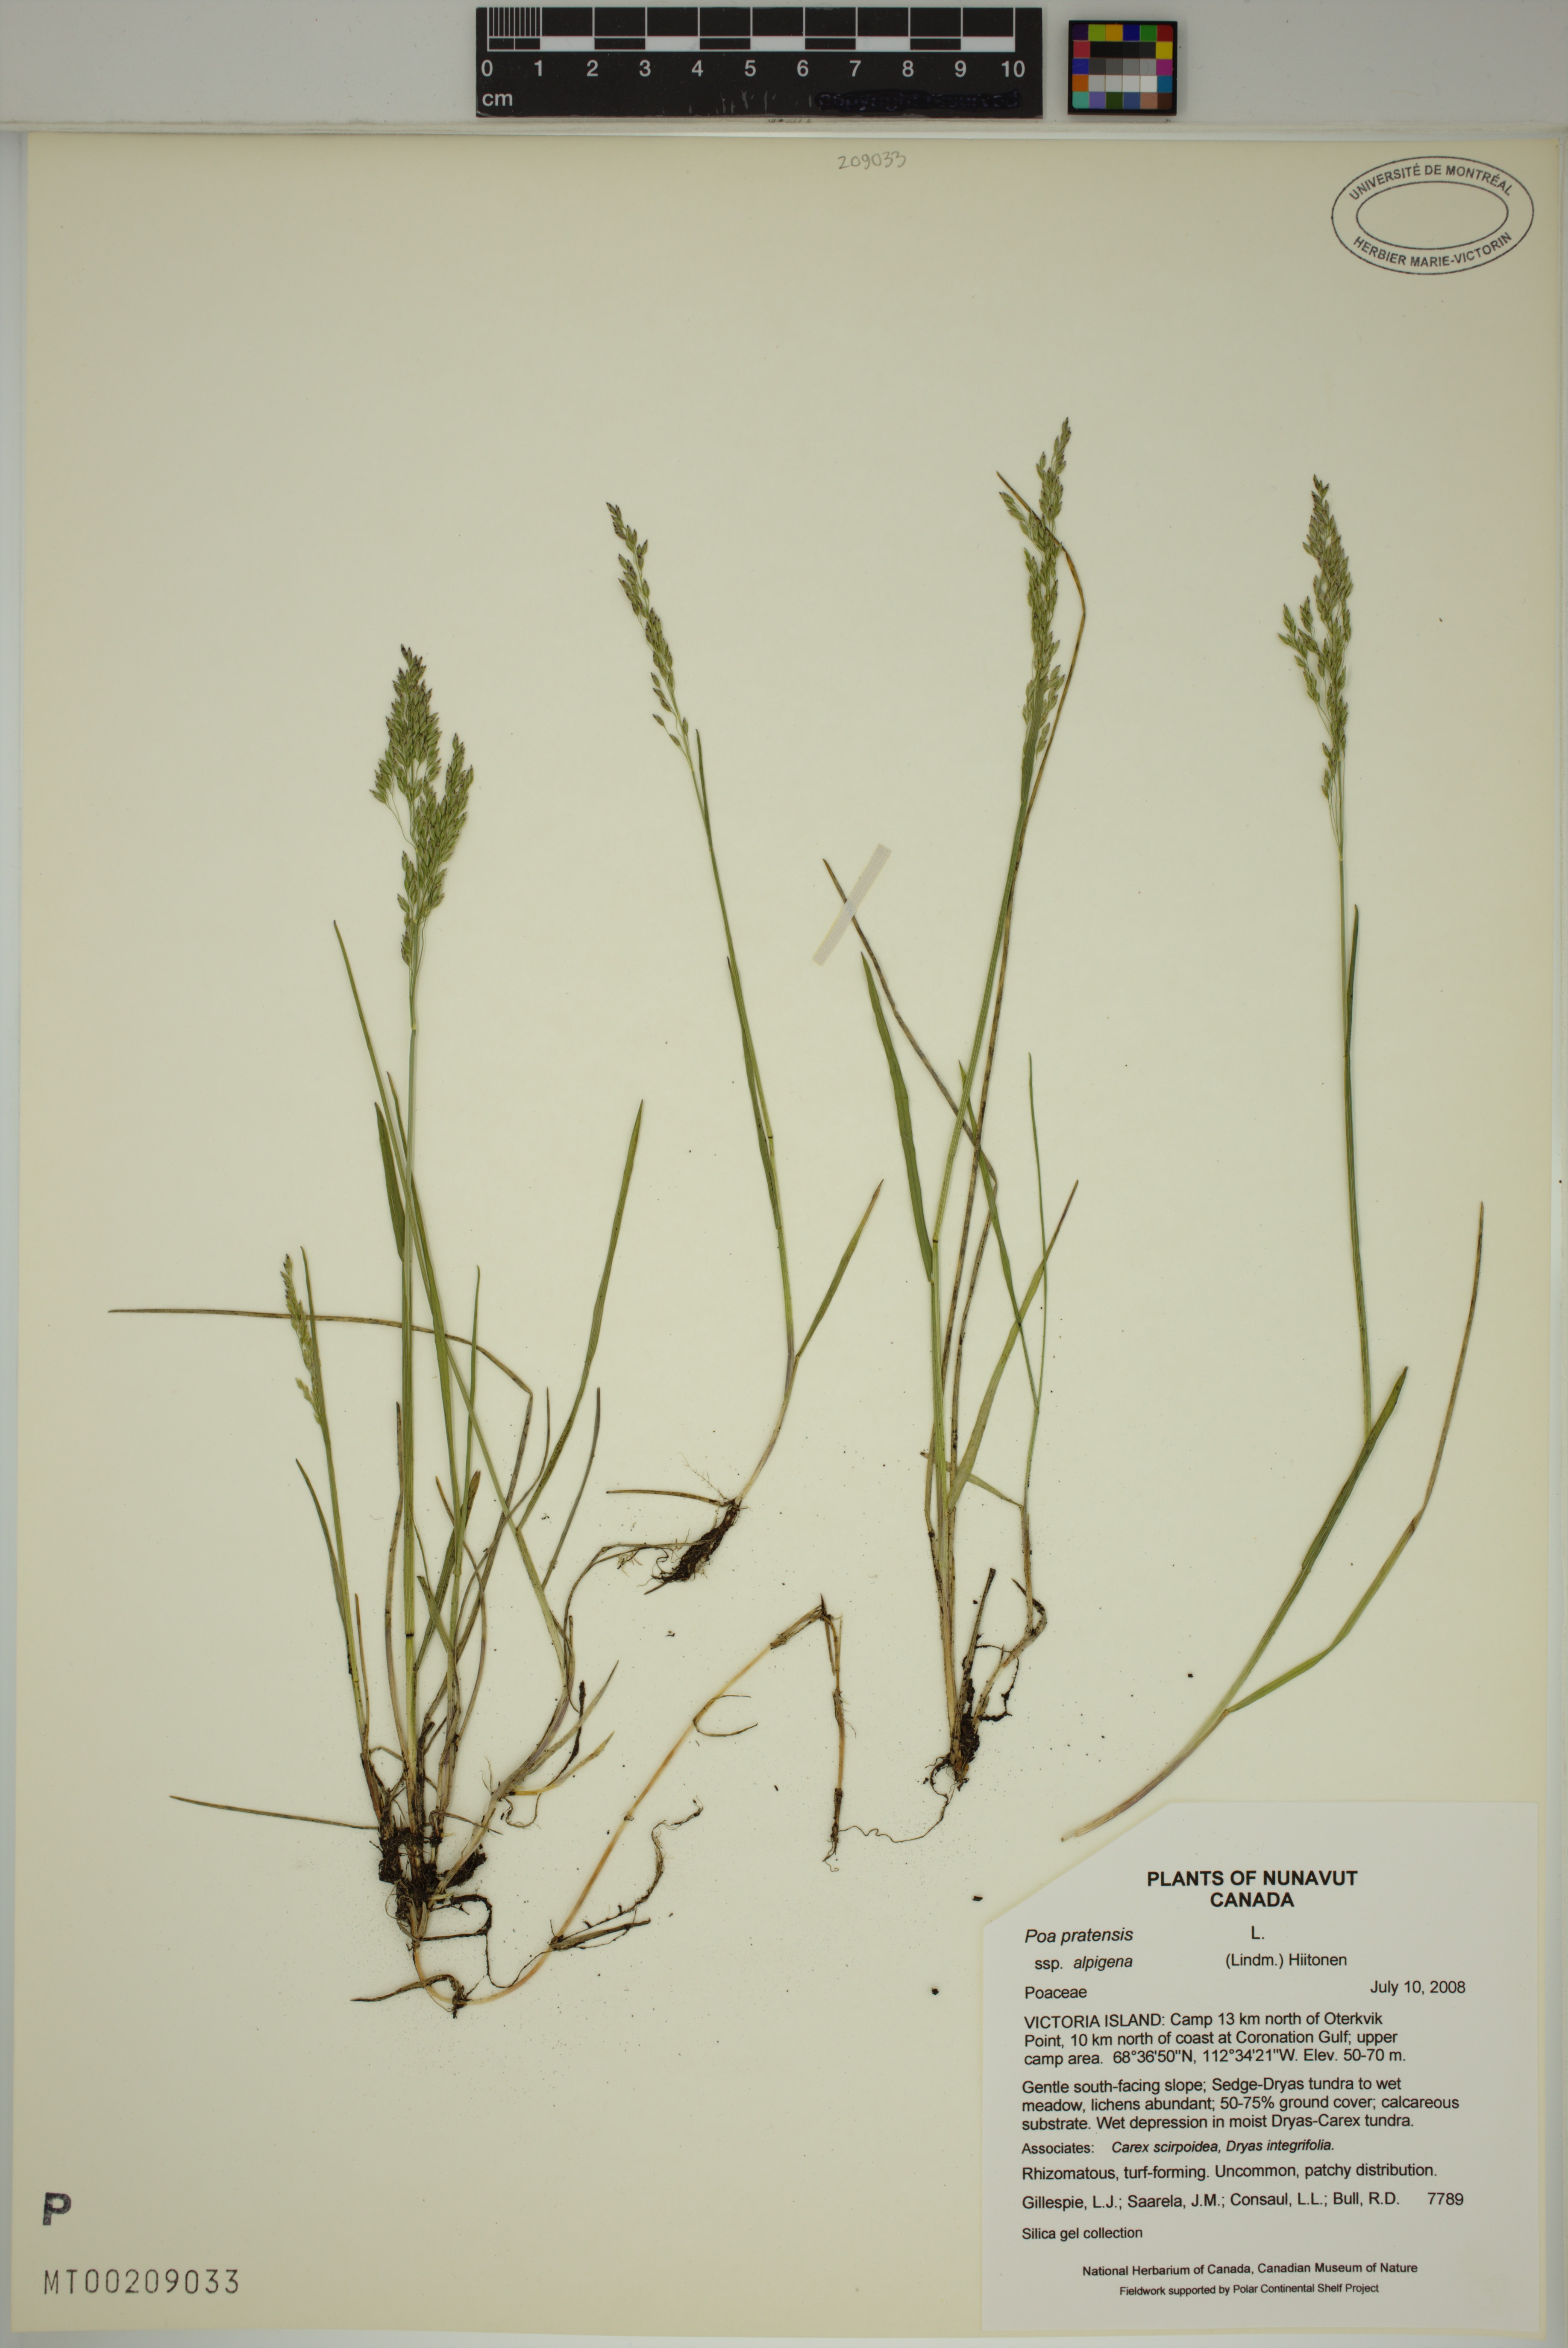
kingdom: Plantae
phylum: Tracheophyta
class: Liliopsida
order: Poales
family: Poaceae
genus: Poa
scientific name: Poa alpigena
